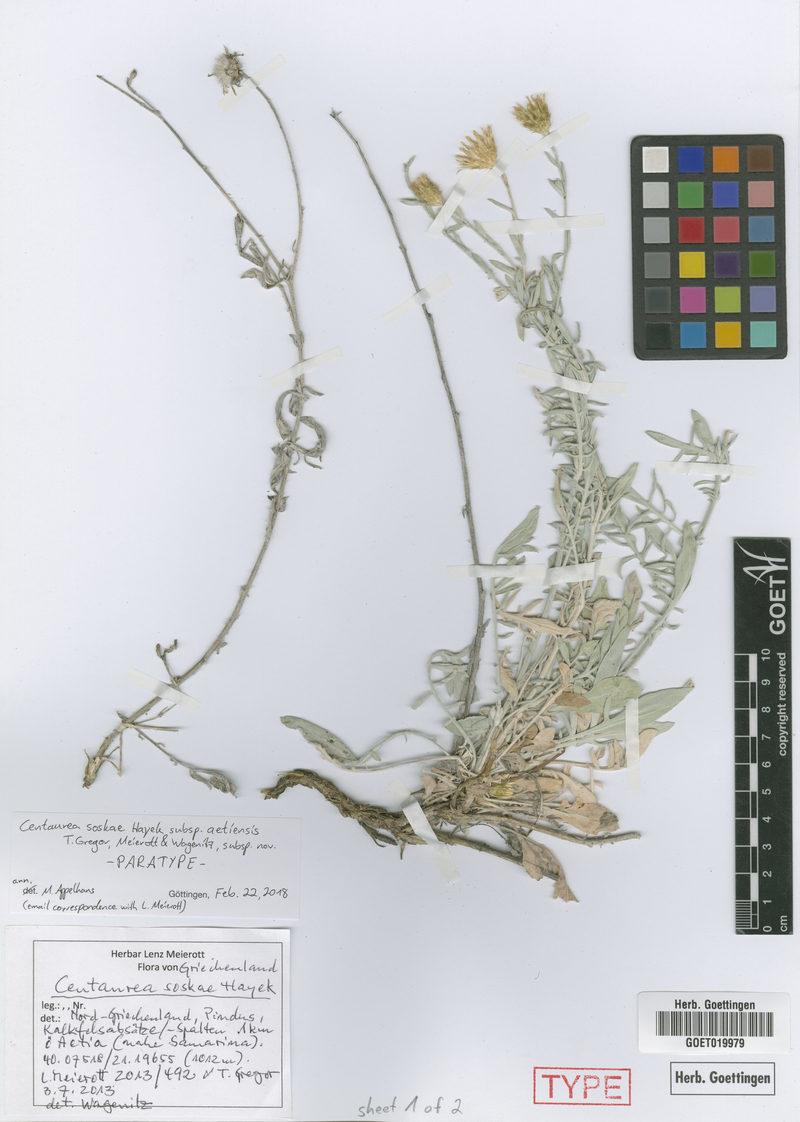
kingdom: Plantae
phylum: Tracheophyta
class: Magnoliopsida
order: Asterales
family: Asteraceae
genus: Centaurea
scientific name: Centaurea soskae
